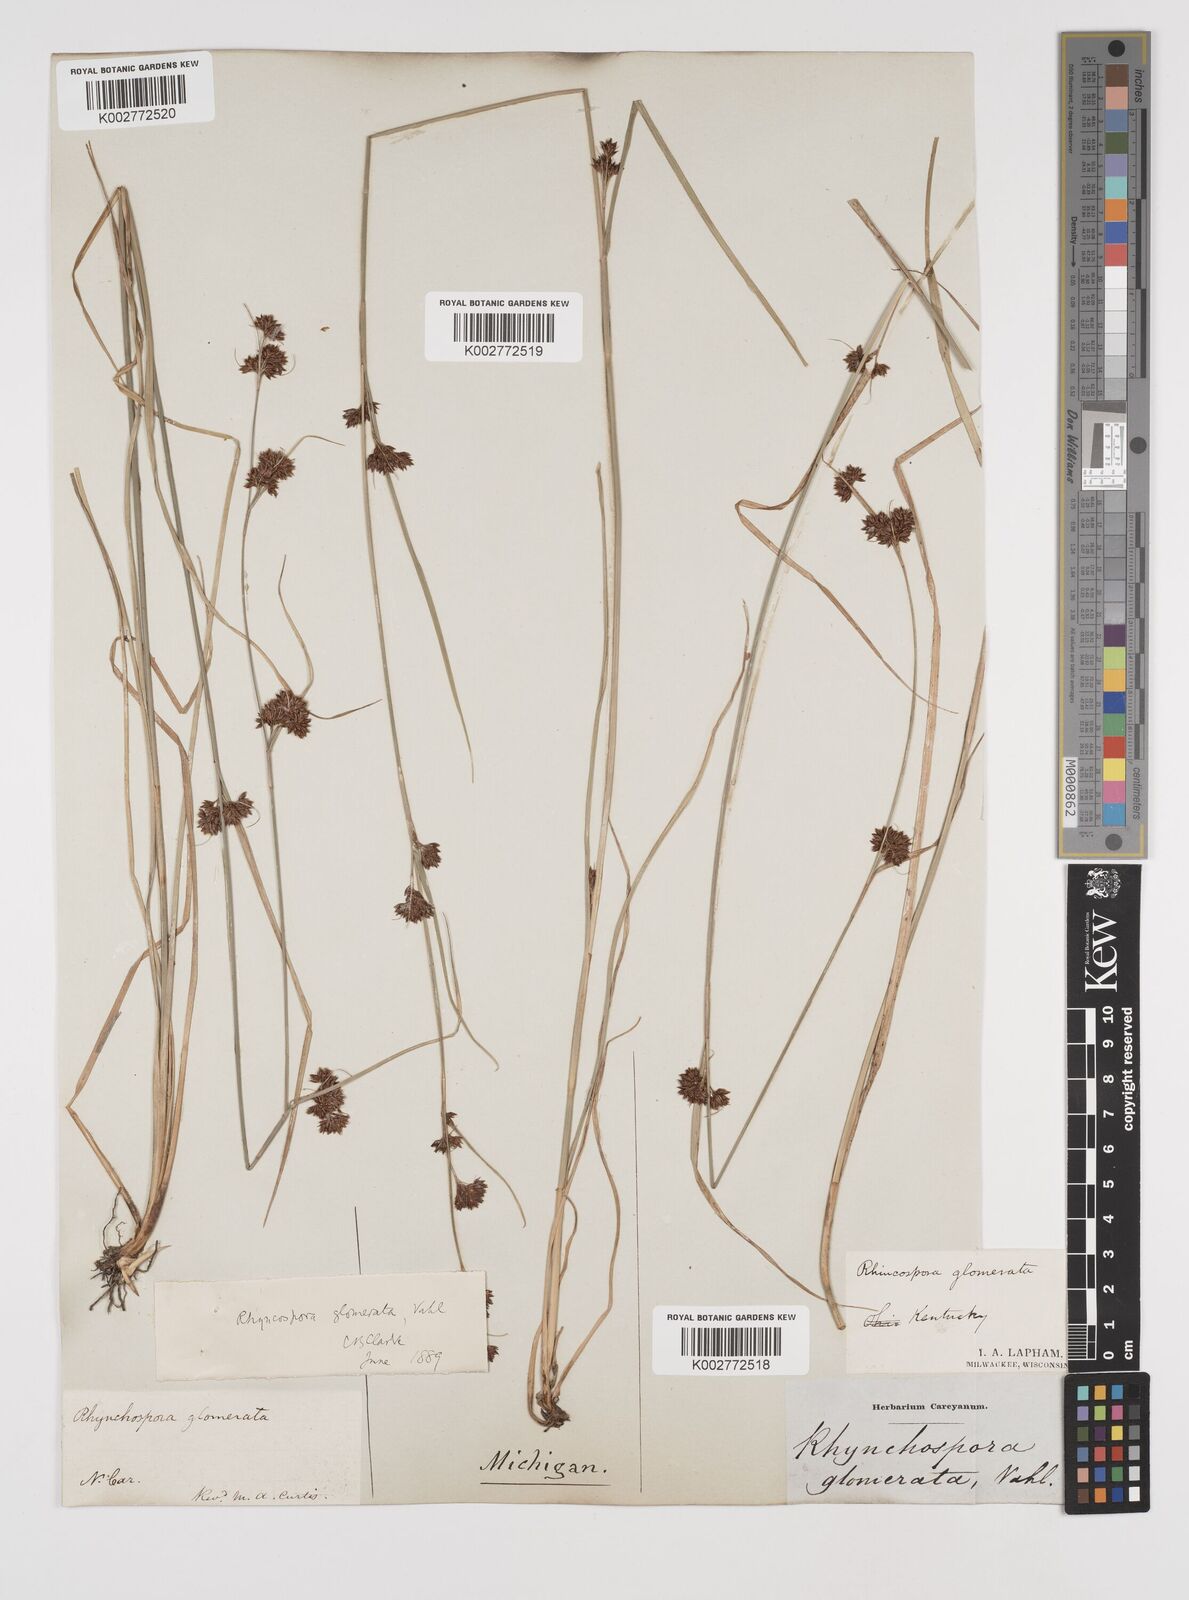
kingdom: Plantae
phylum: Tracheophyta
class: Liliopsida
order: Poales
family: Cyperaceae
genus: Rhynchospora
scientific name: Rhynchospora glomerata
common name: Cluster beak sedge
